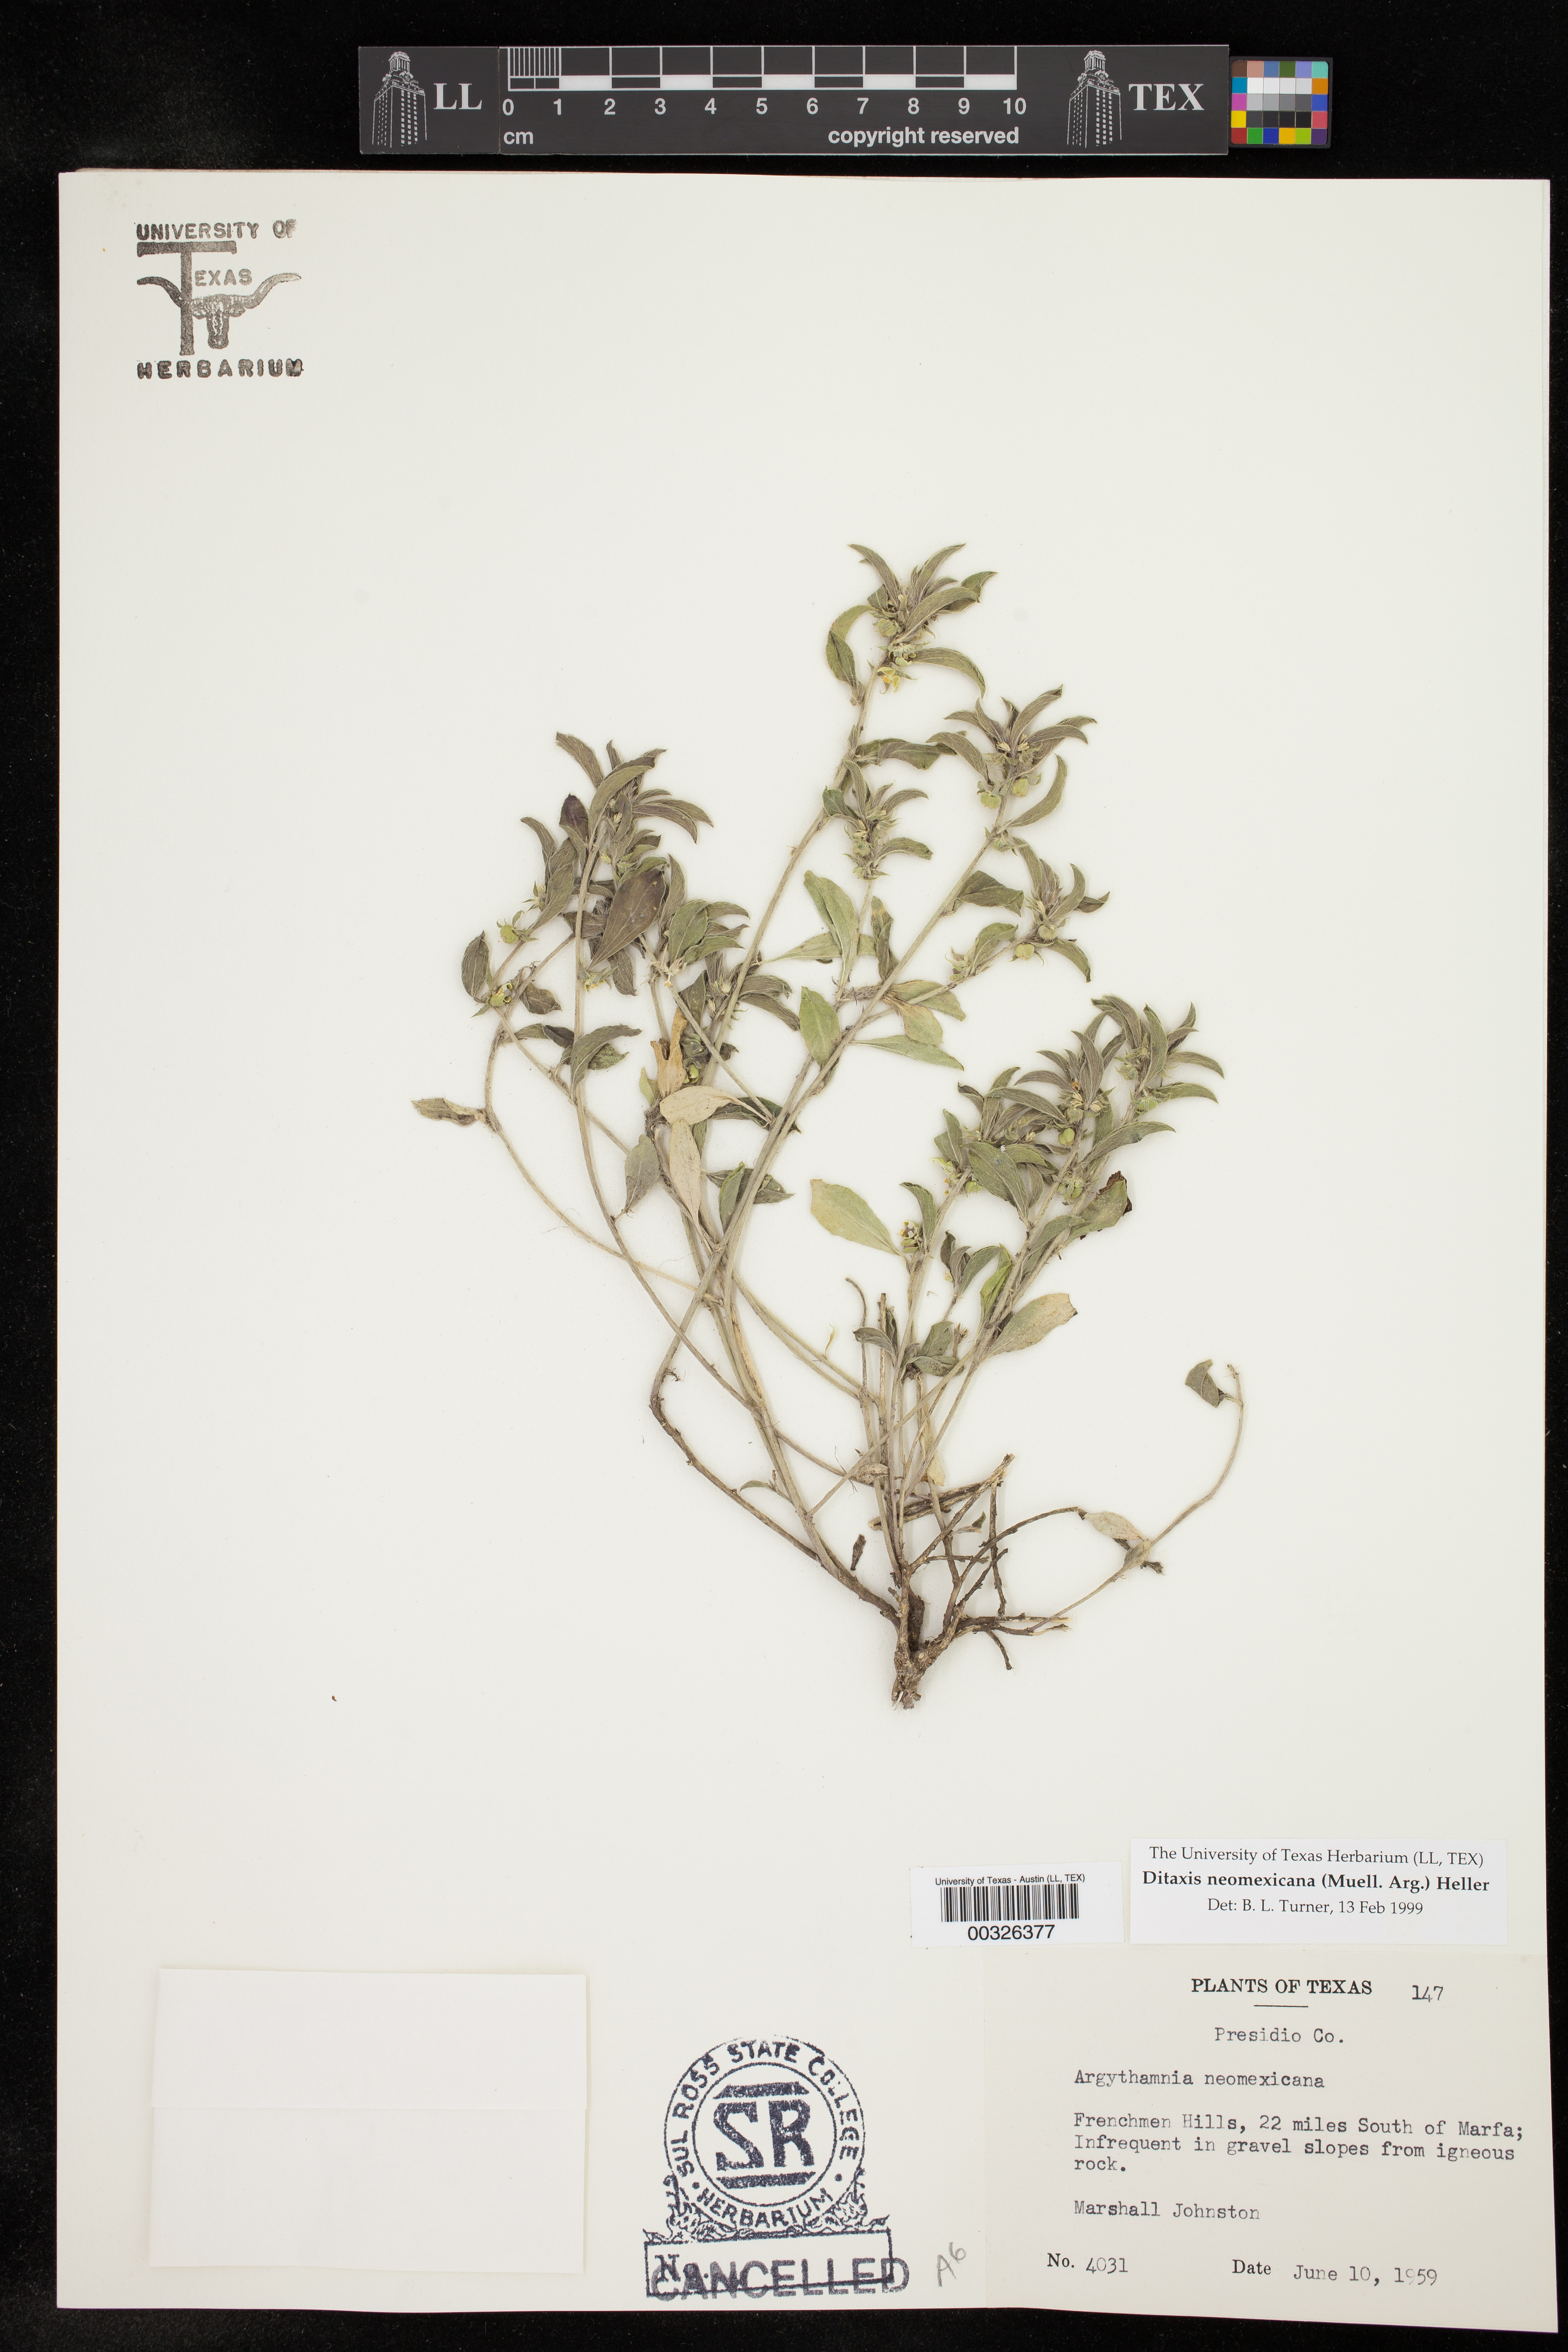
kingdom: Plantae
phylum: Tracheophyta
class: Magnoliopsida
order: Malpighiales
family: Euphorbiaceae
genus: Ditaxis
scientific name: Ditaxis serrata
